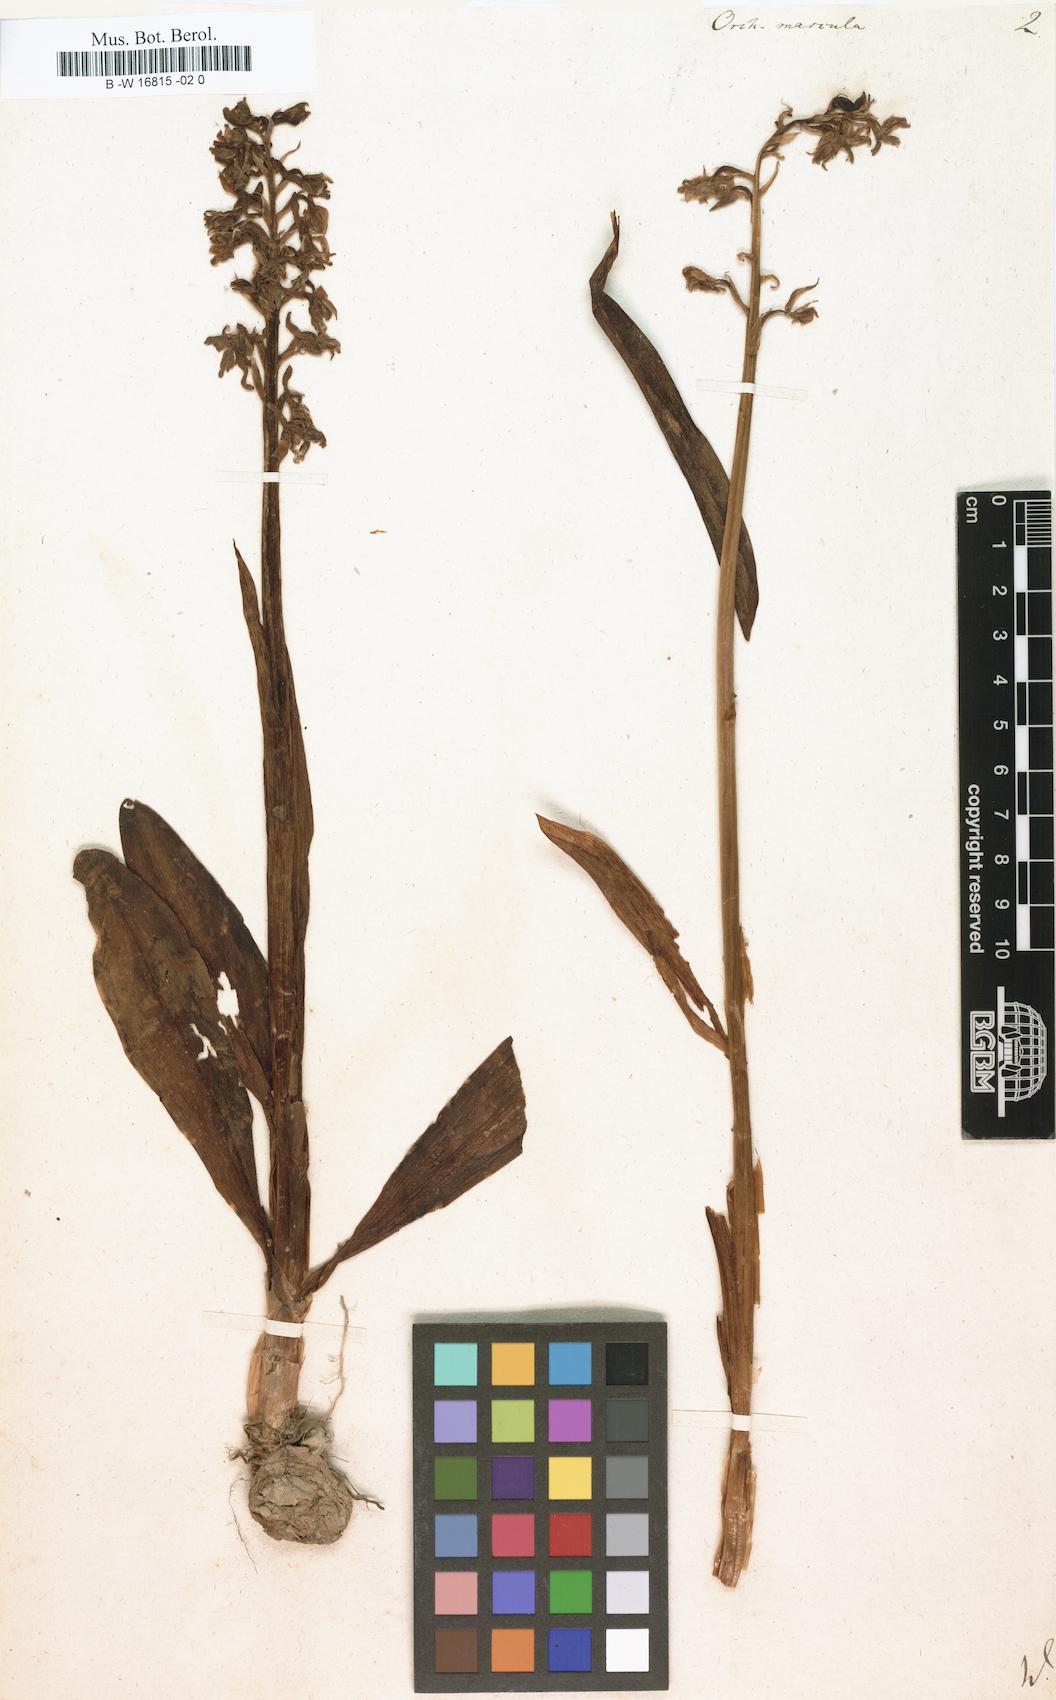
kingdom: Plantae
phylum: Tracheophyta
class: Liliopsida
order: Asparagales
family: Orchidaceae
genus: Orchis
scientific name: Orchis mascula
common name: Early-purple orchid
